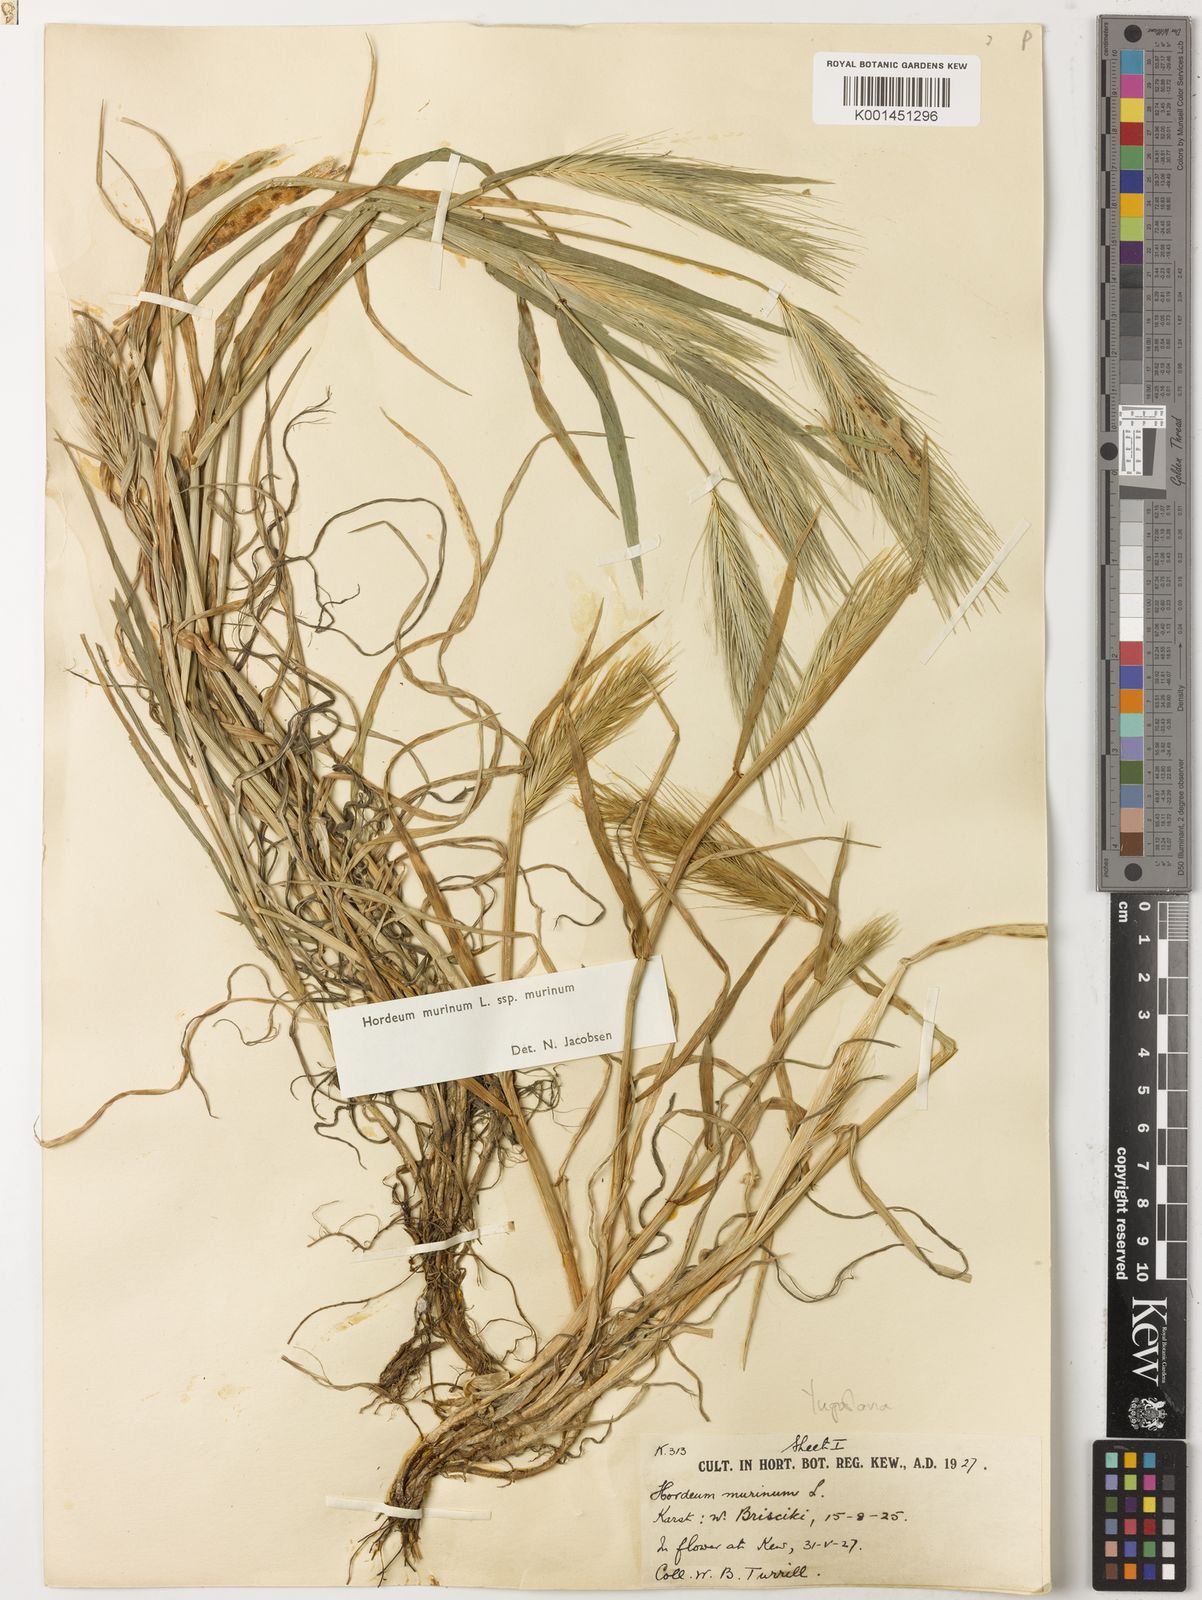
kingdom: Plantae
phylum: Tracheophyta
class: Liliopsida
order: Poales
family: Poaceae
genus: Hordeum
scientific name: Hordeum murinum
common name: Wall barley
